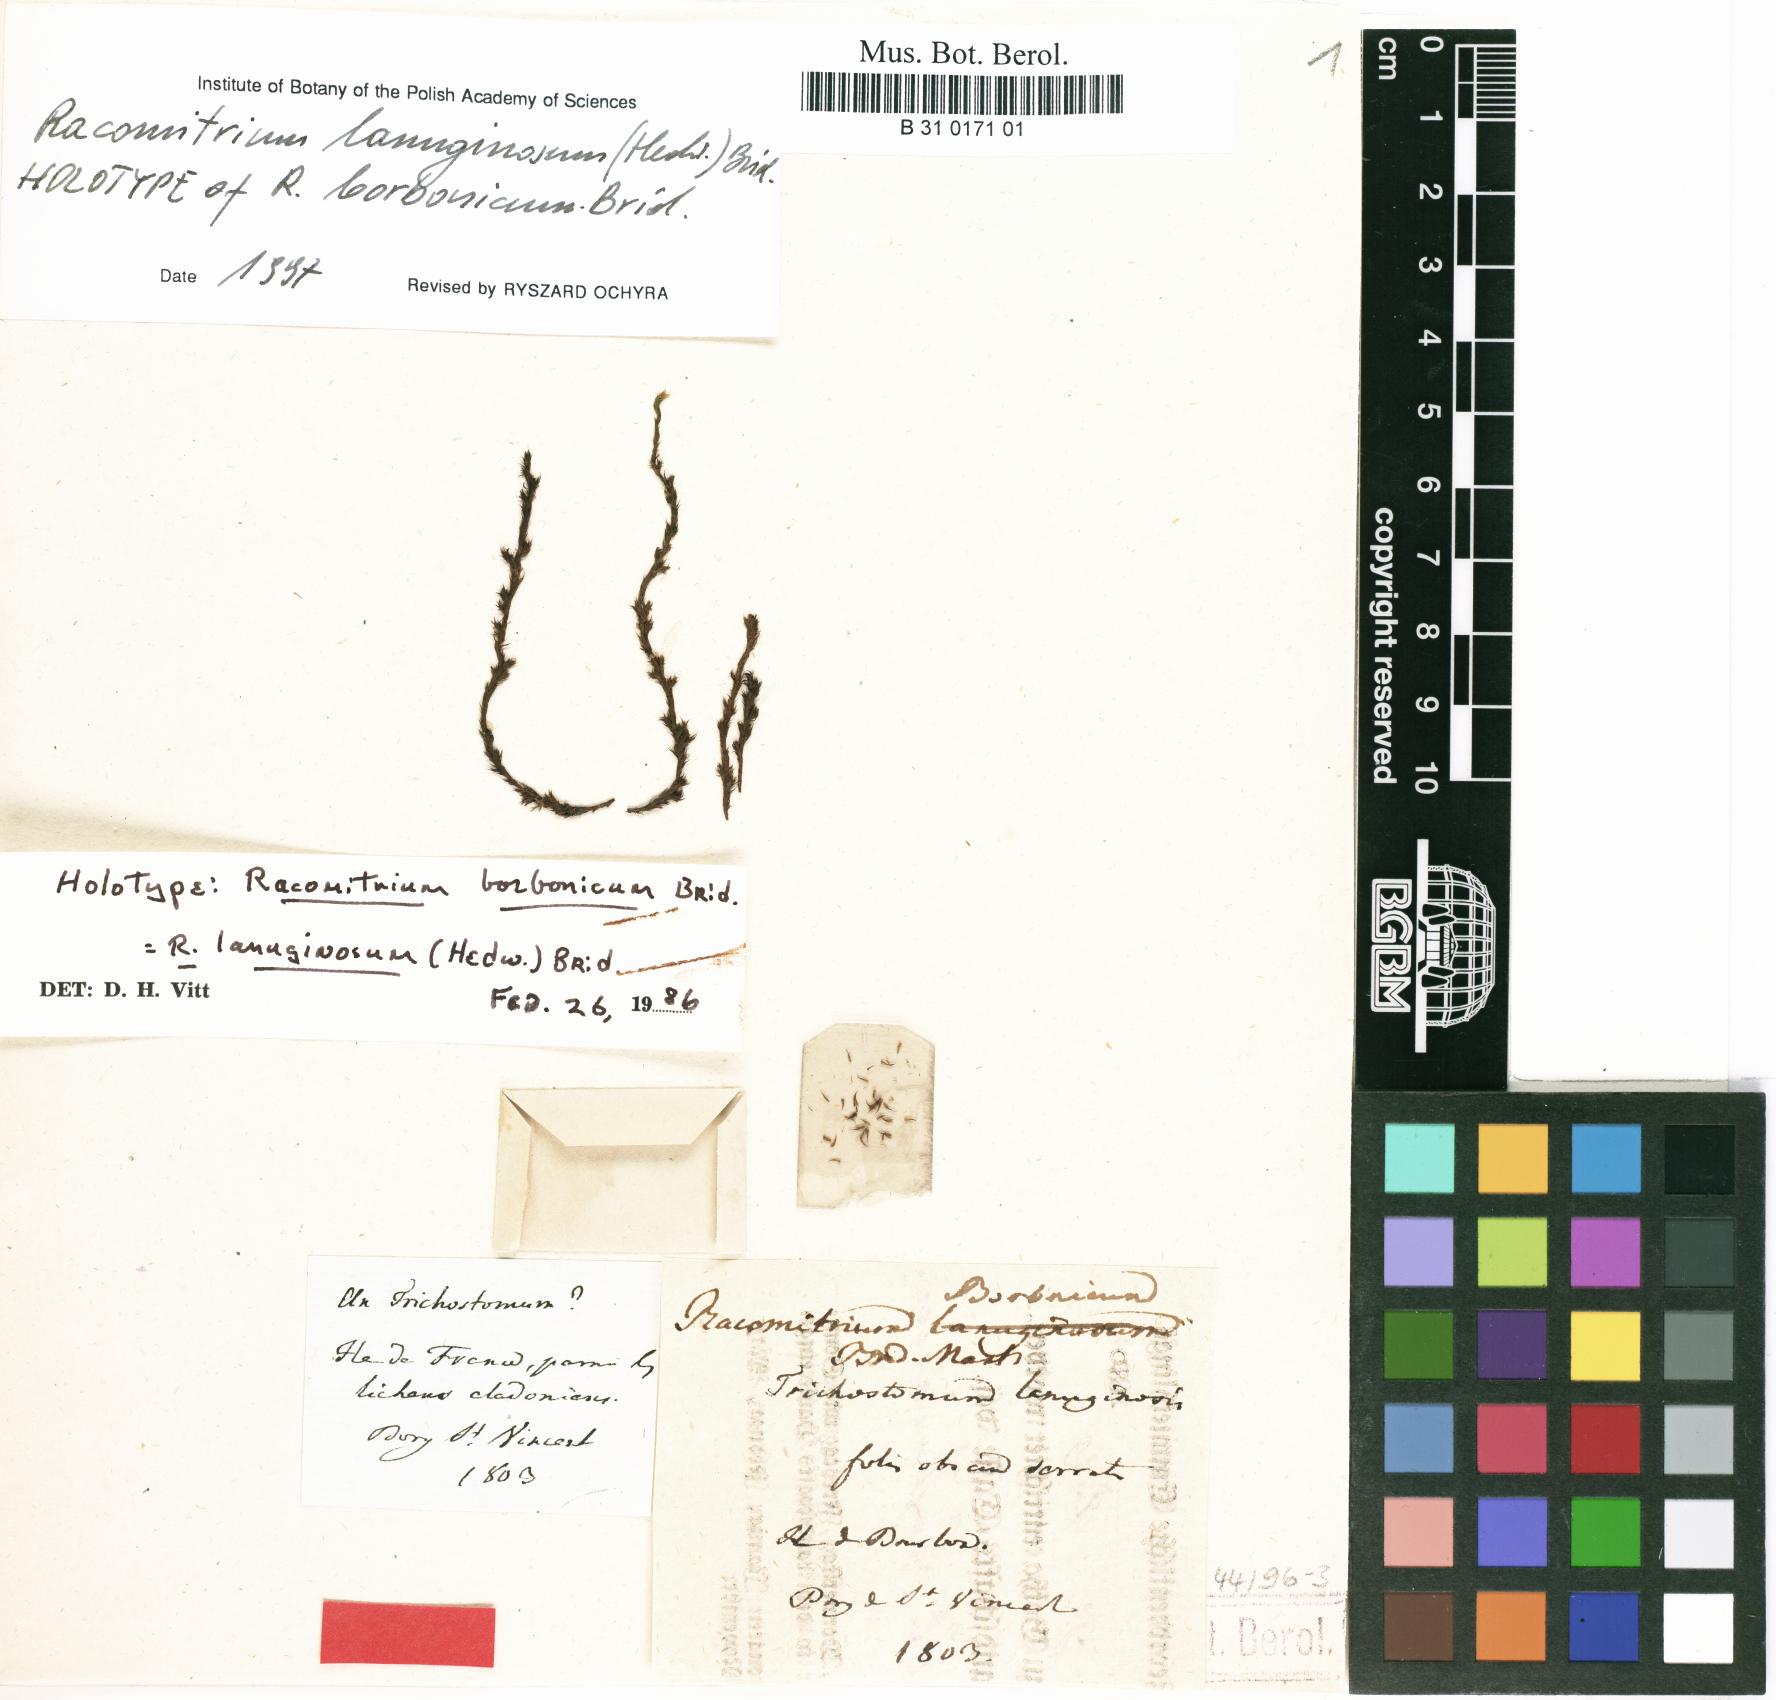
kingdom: Plantae
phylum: Bryophyta
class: Bryopsida
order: Grimmiales
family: Grimmiaceae
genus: Racomitrium
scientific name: Racomitrium lanuginosum
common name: Hoary rock moss
